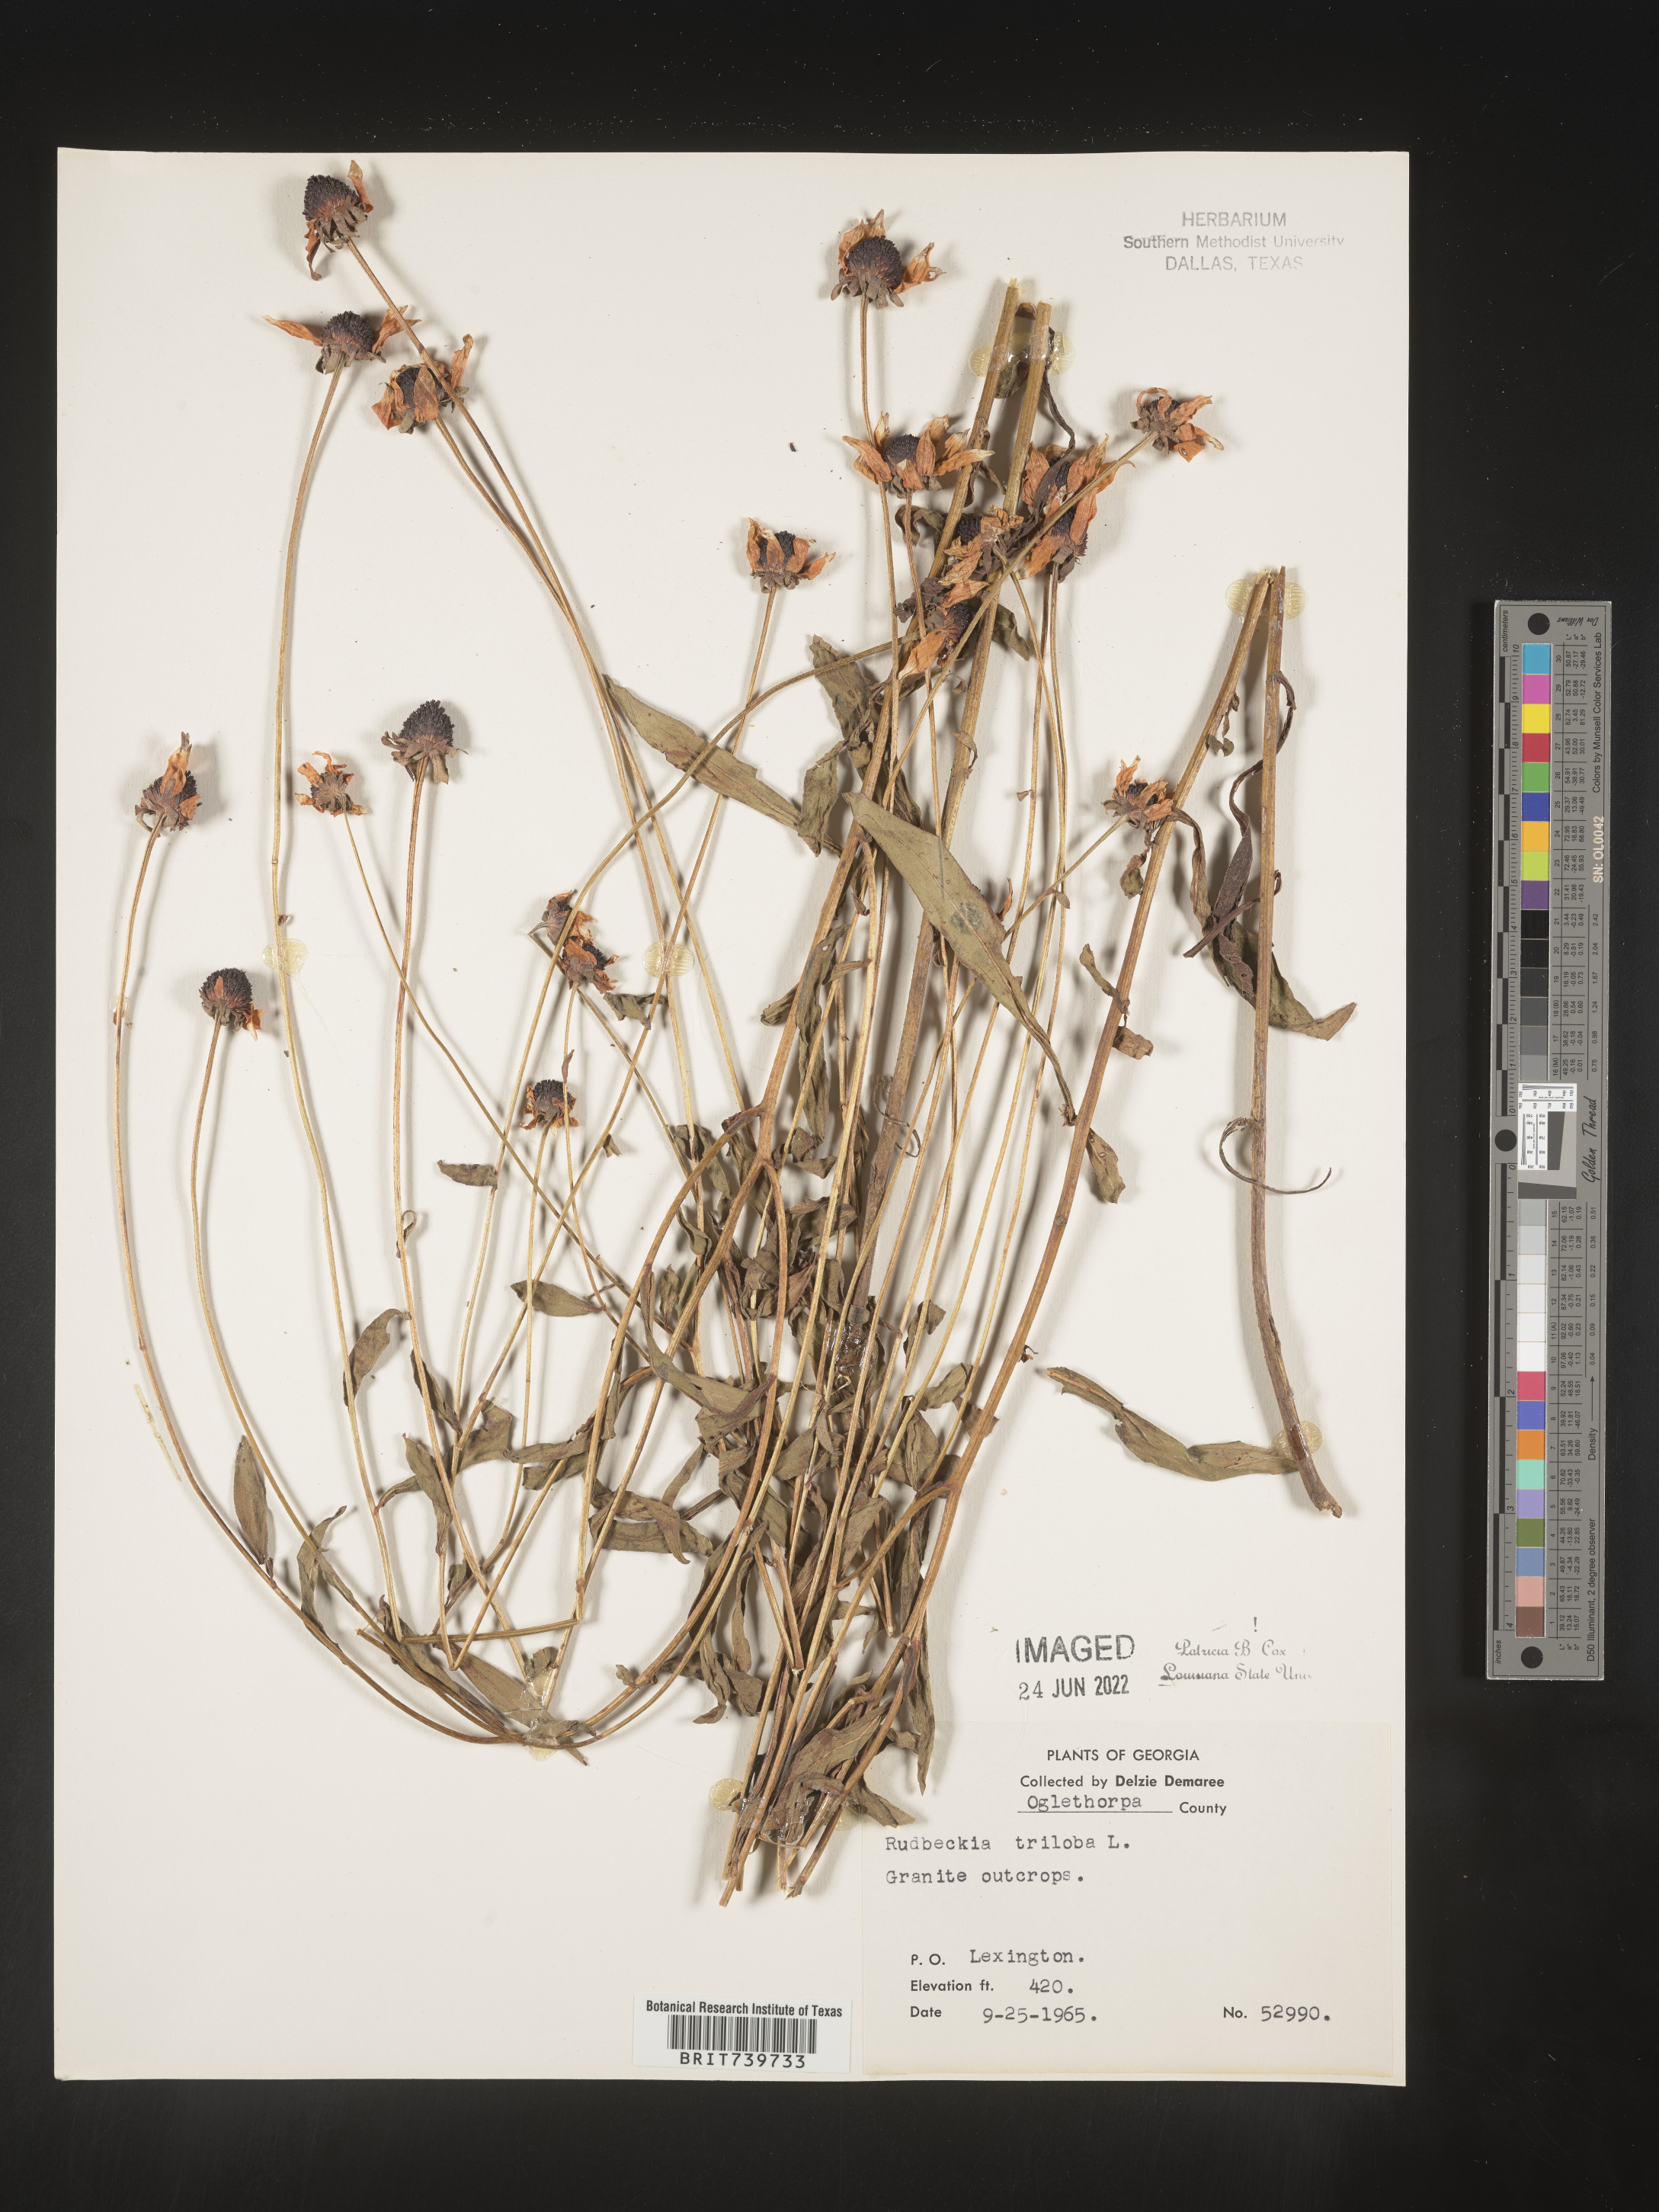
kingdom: Plantae
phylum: Tracheophyta
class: Magnoliopsida
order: Asterales
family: Asteraceae
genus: Rudbeckia
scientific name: Rudbeckia triloba
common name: Thin-leaved coneflower
